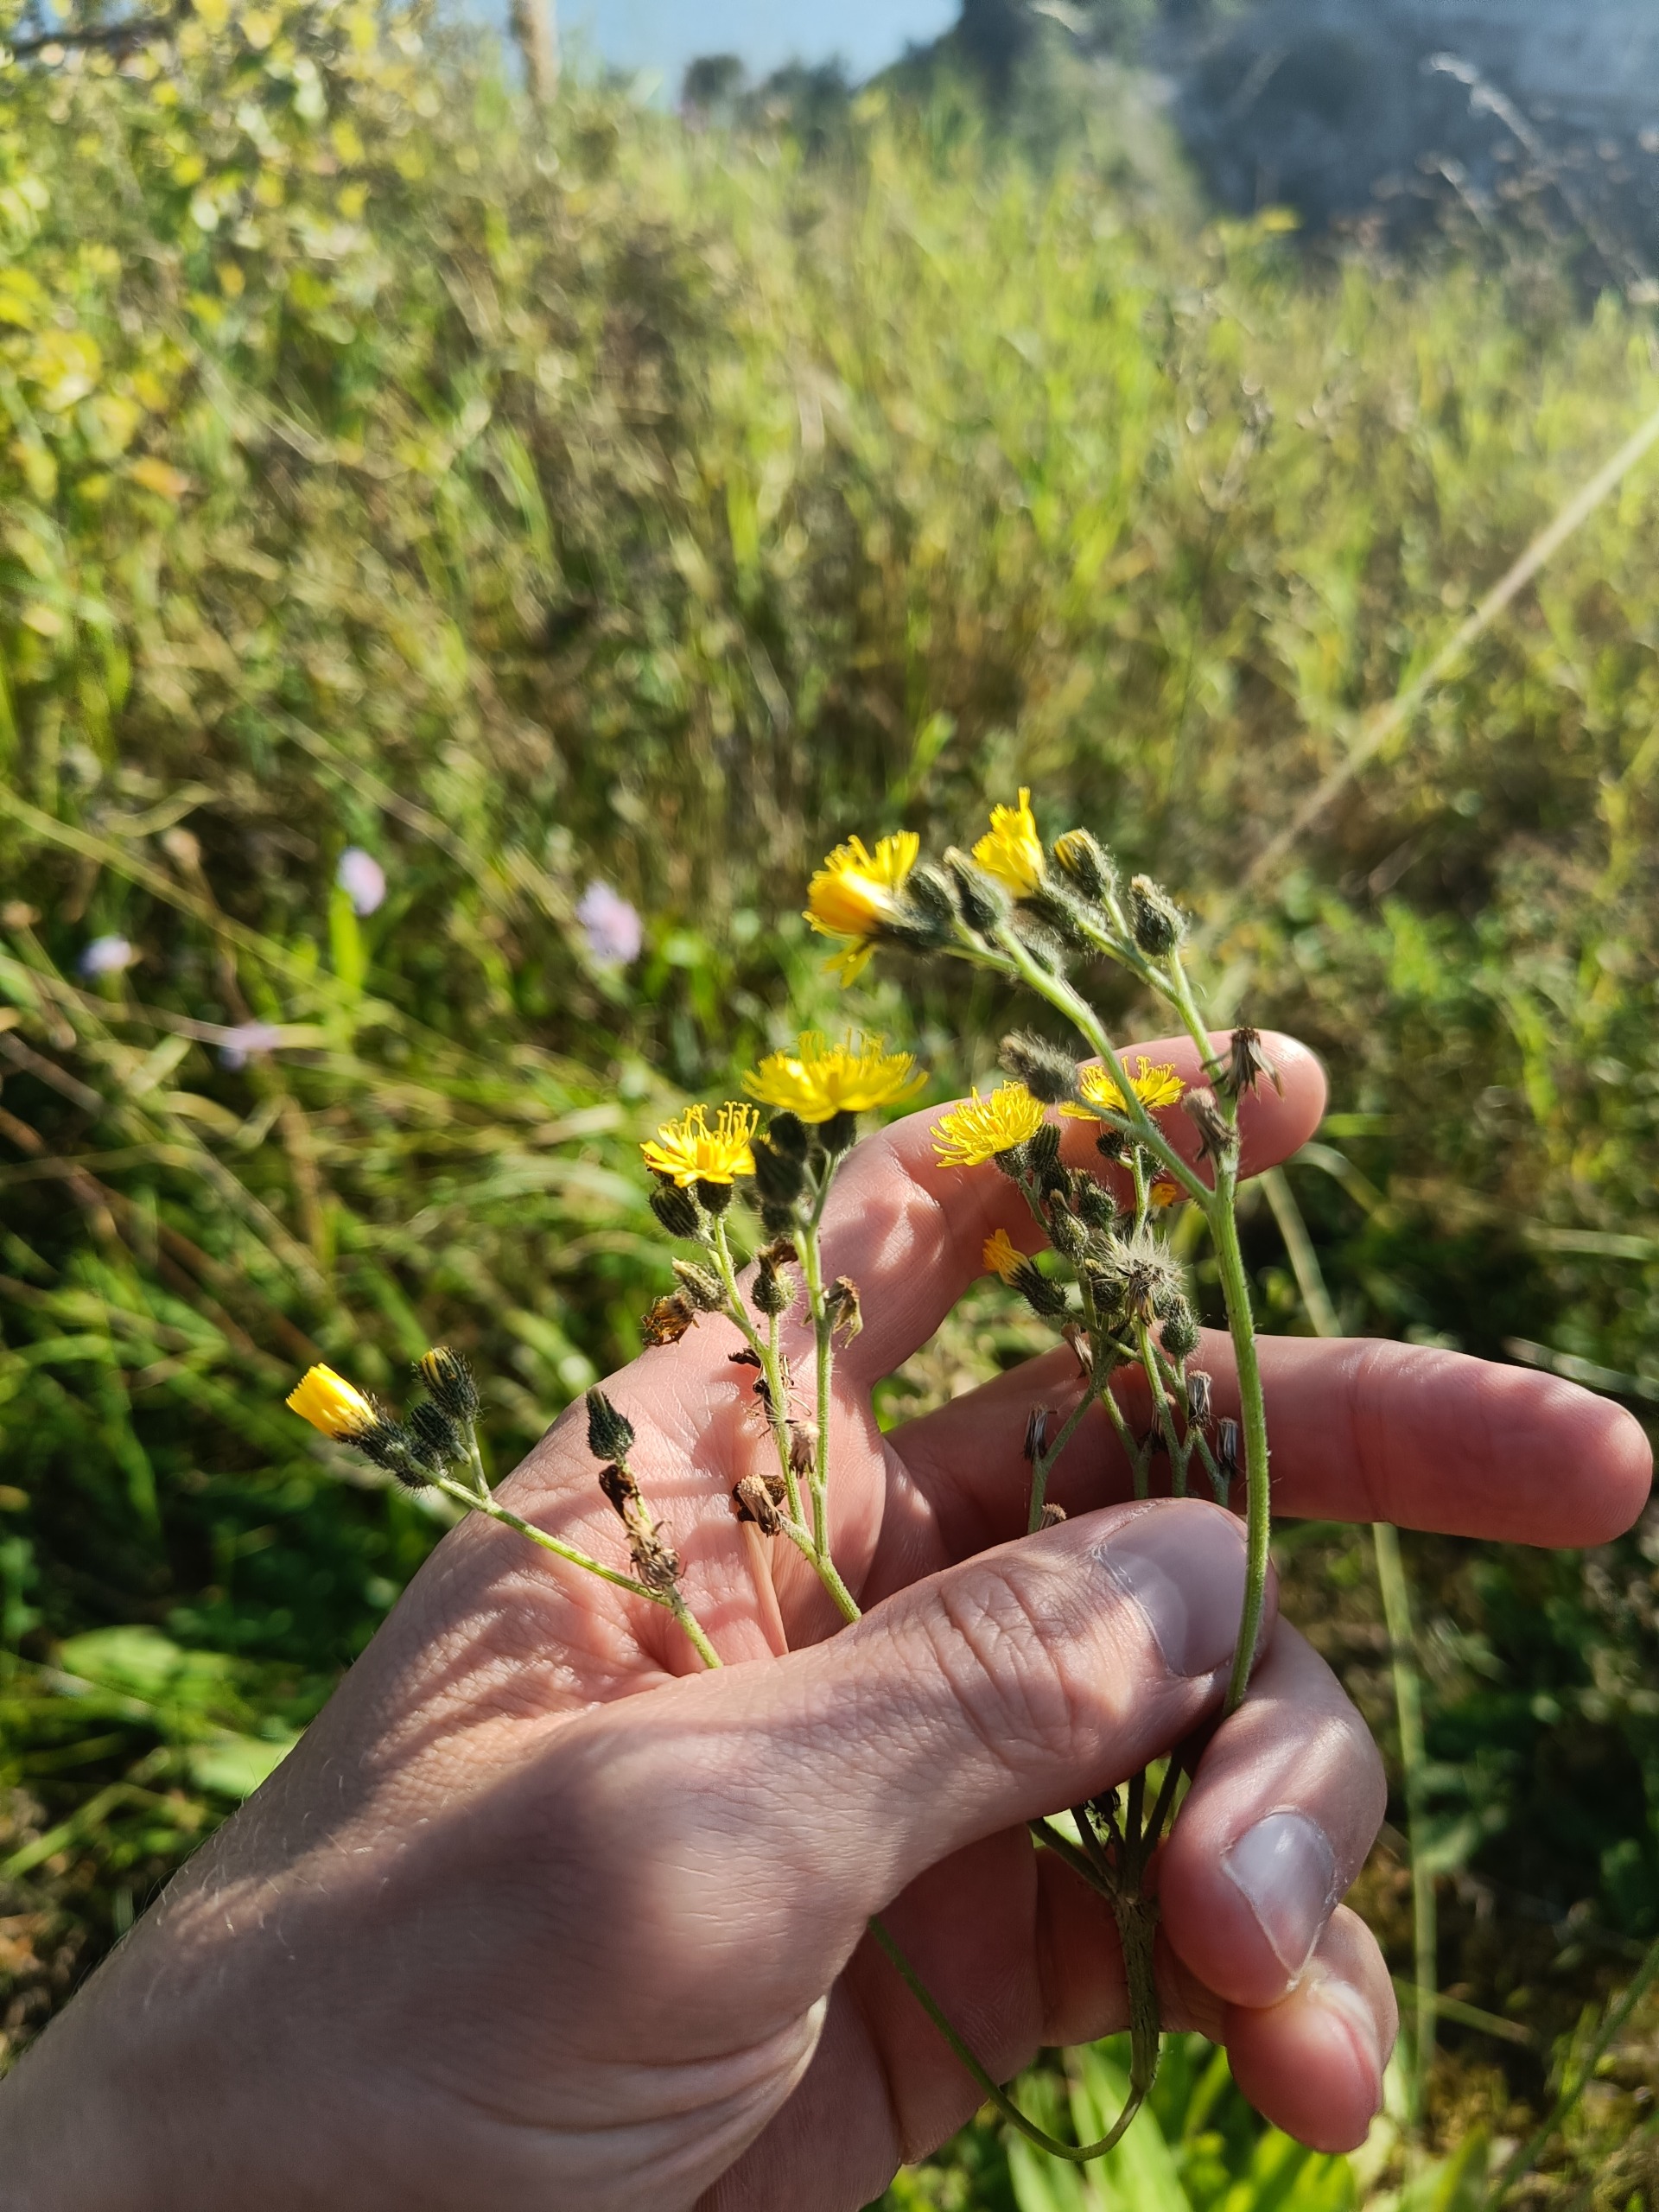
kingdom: Plantae
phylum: Tracheophyta
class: Magnoliopsida
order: Asterales
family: Asteraceae
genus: Pilosella
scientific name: Pilosella cymosa
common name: Kvast-høgeurt
